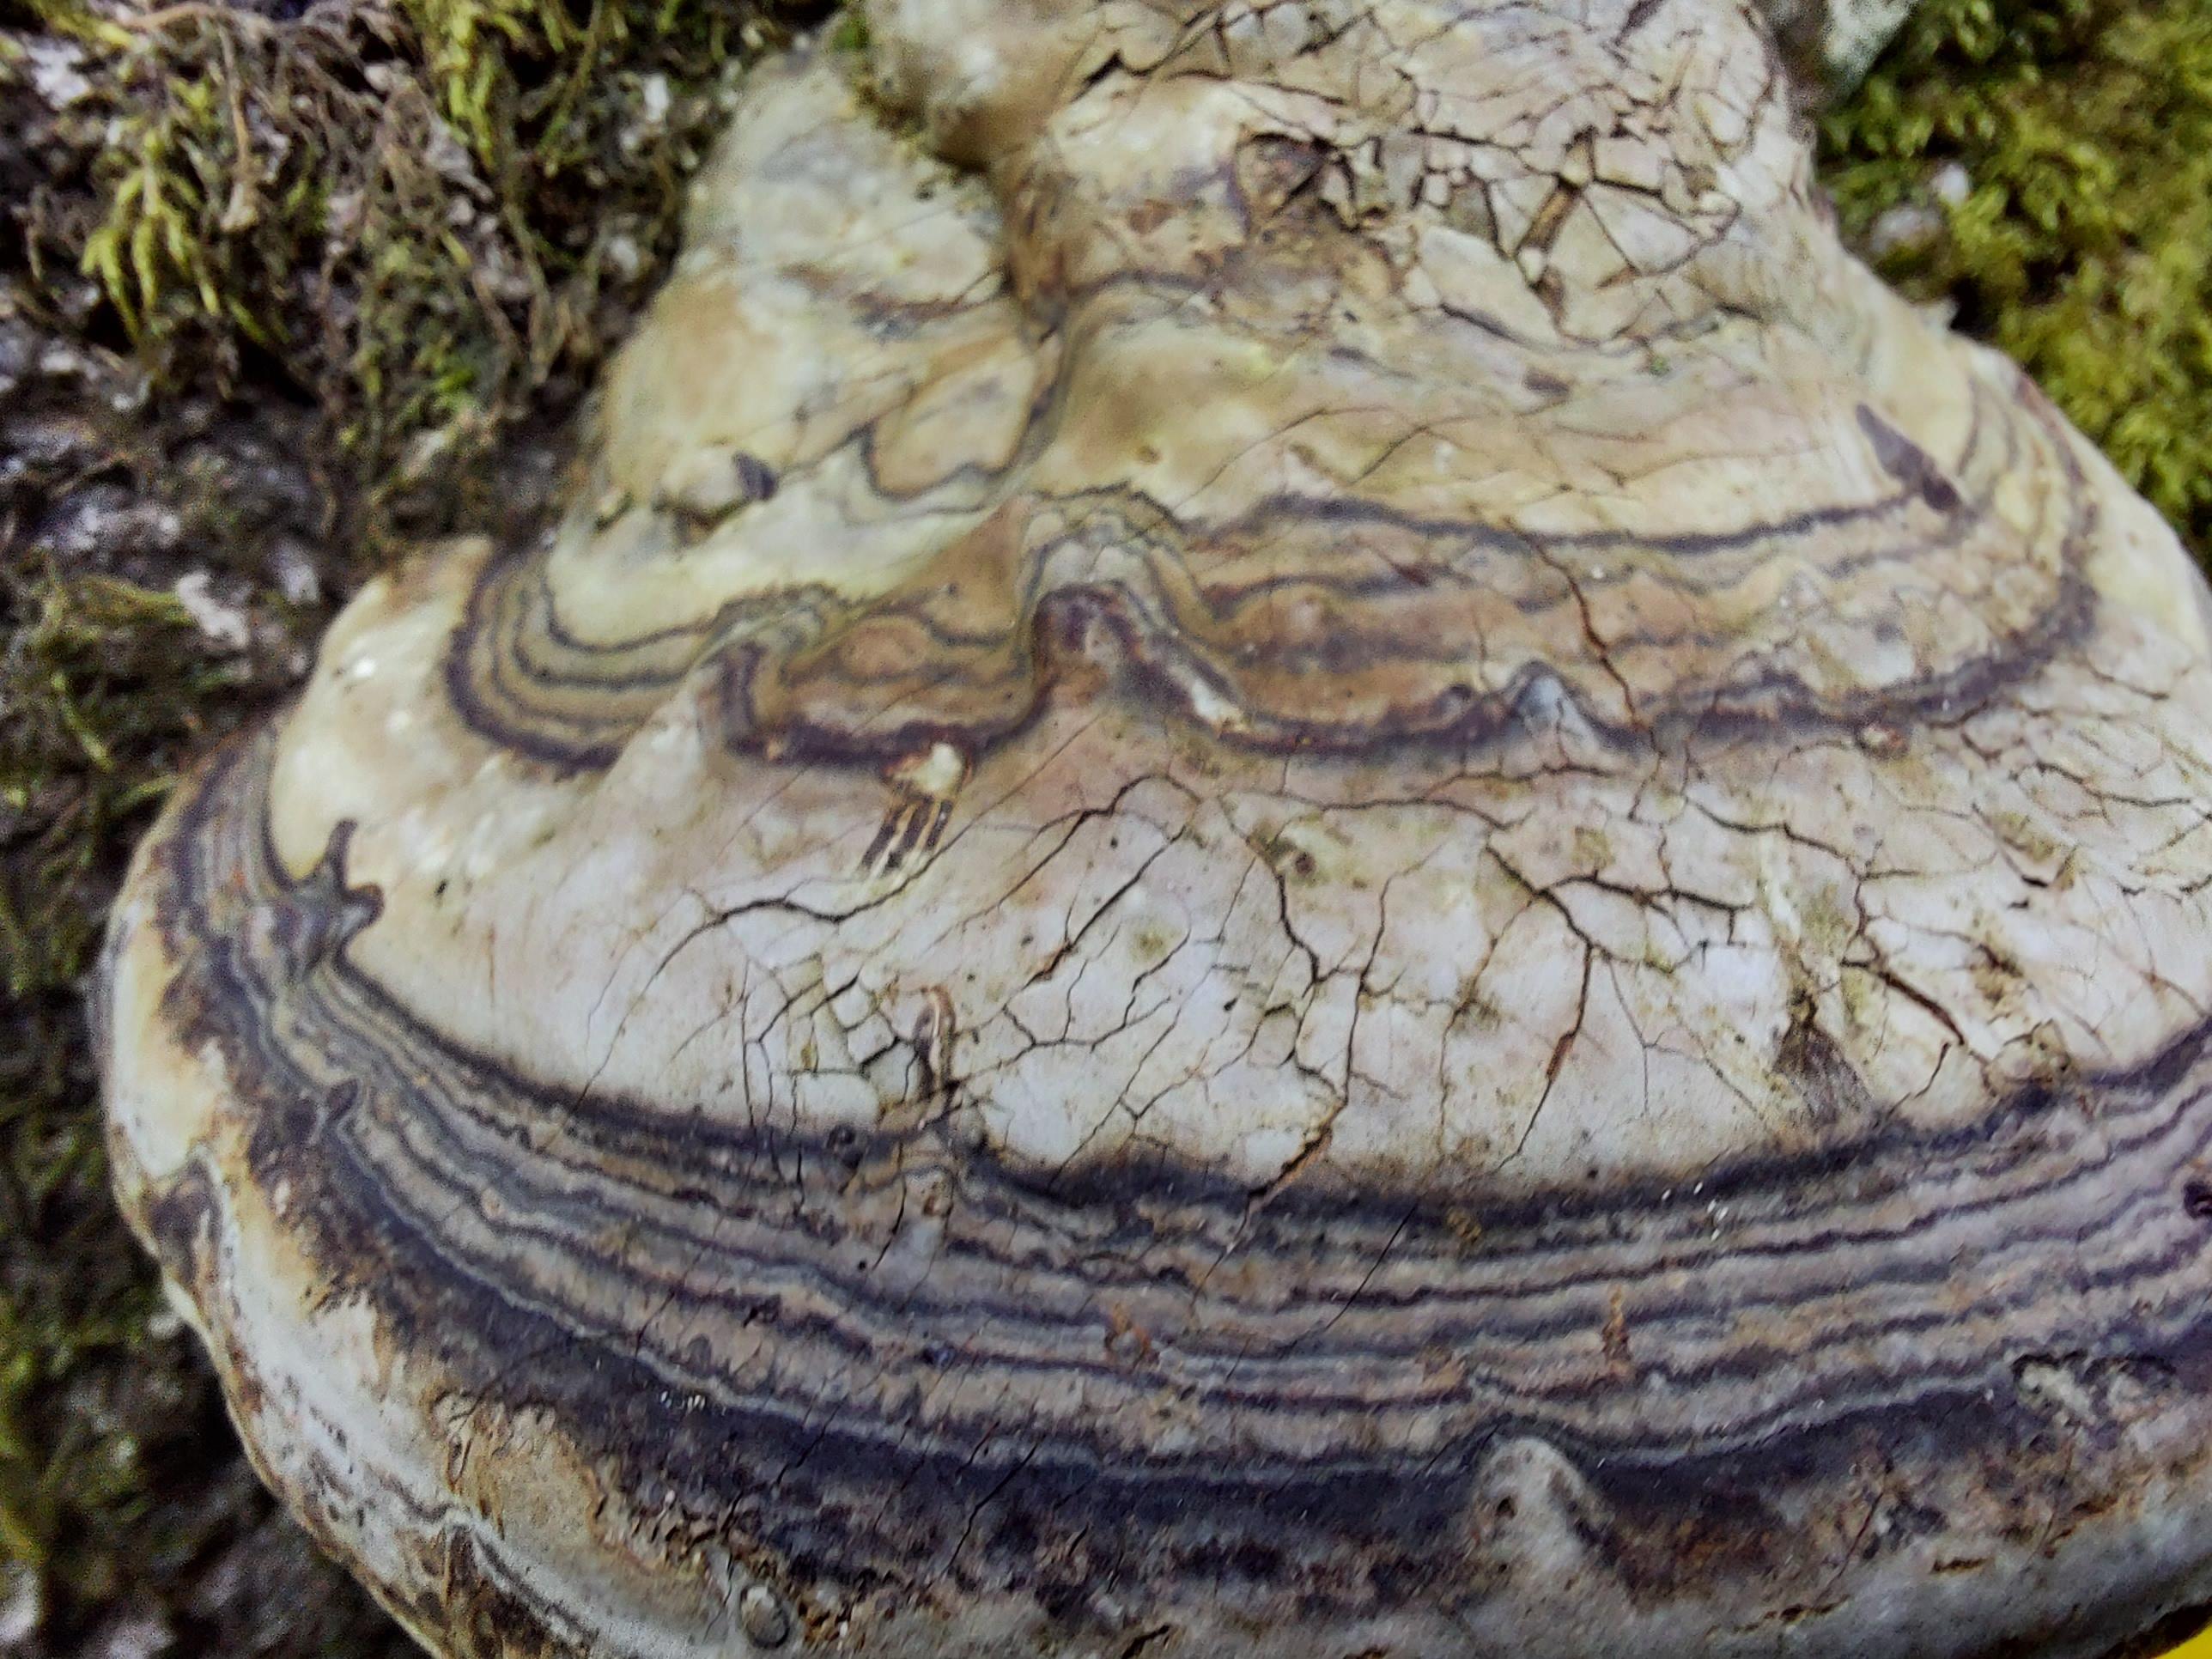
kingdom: Fungi
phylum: Basidiomycota
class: Agaricomycetes
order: Polyporales
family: Polyporaceae
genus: Fomes
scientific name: Fomes fomentarius
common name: tøndersvamp
